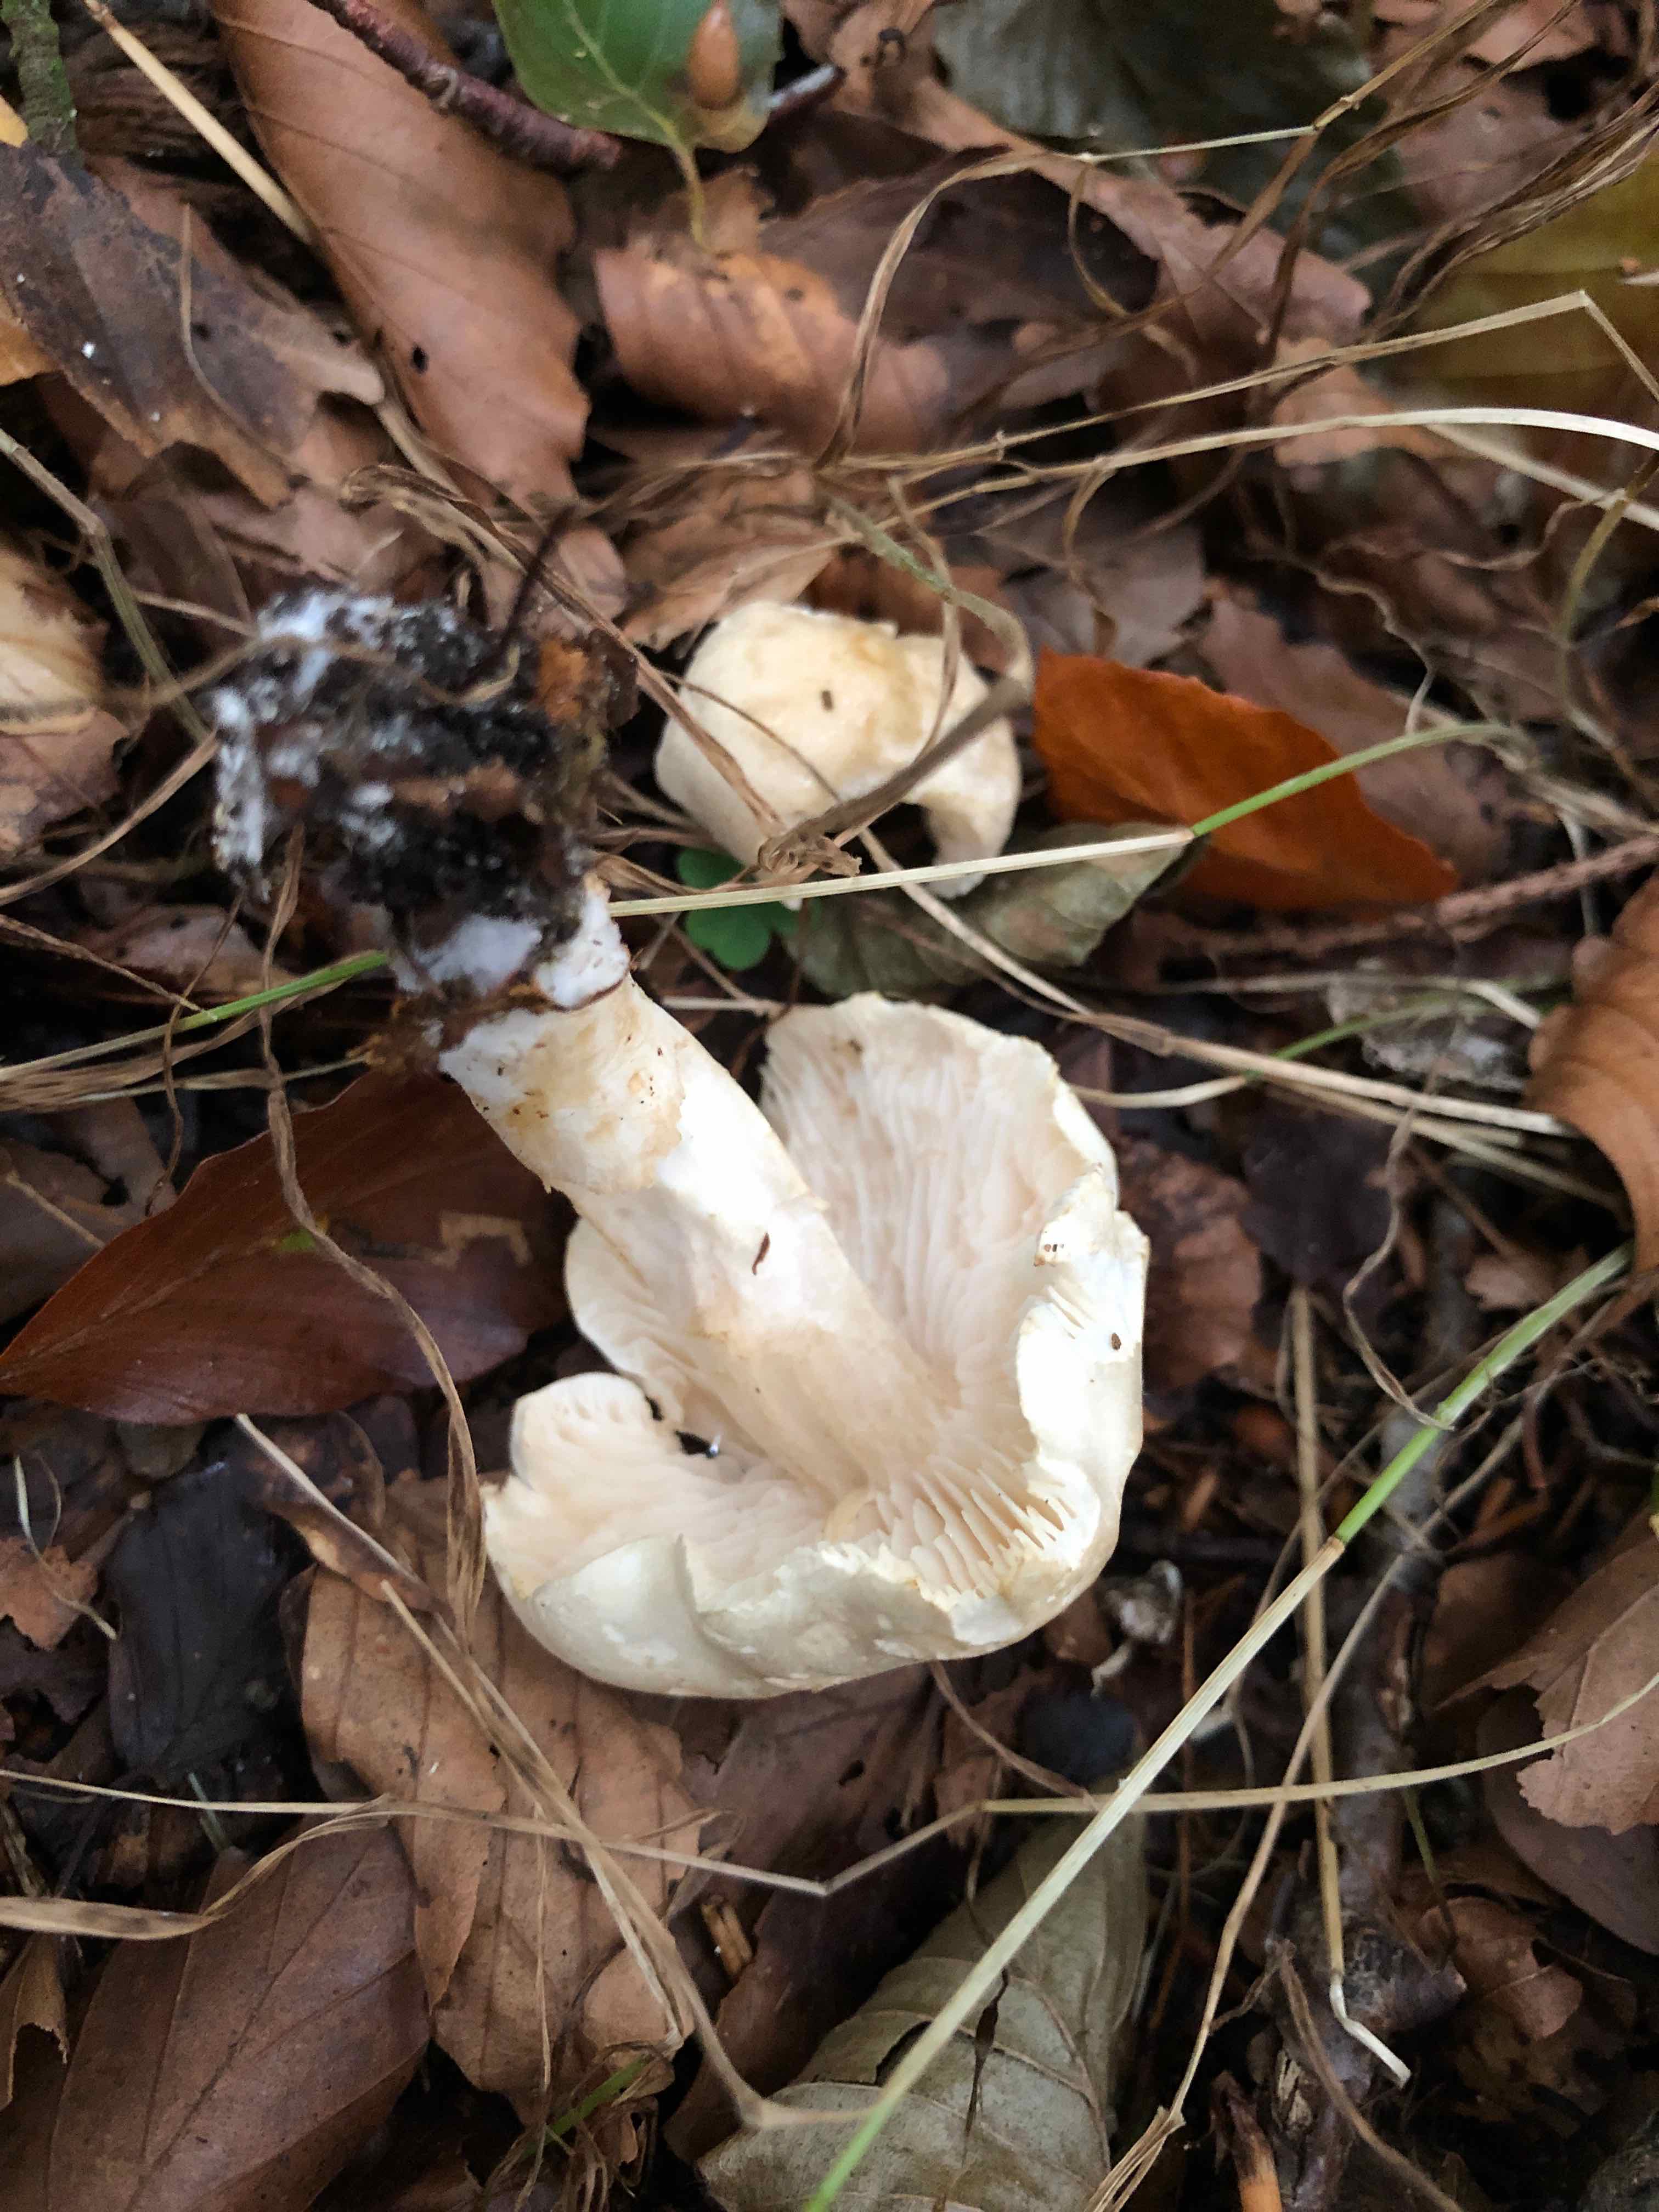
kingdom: Fungi
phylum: Basidiomycota
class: Agaricomycetes
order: Agaricales
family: Tricholomataceae
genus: Tricholoma
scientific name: Tricholoma lascivum
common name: stinkende ridderhat
